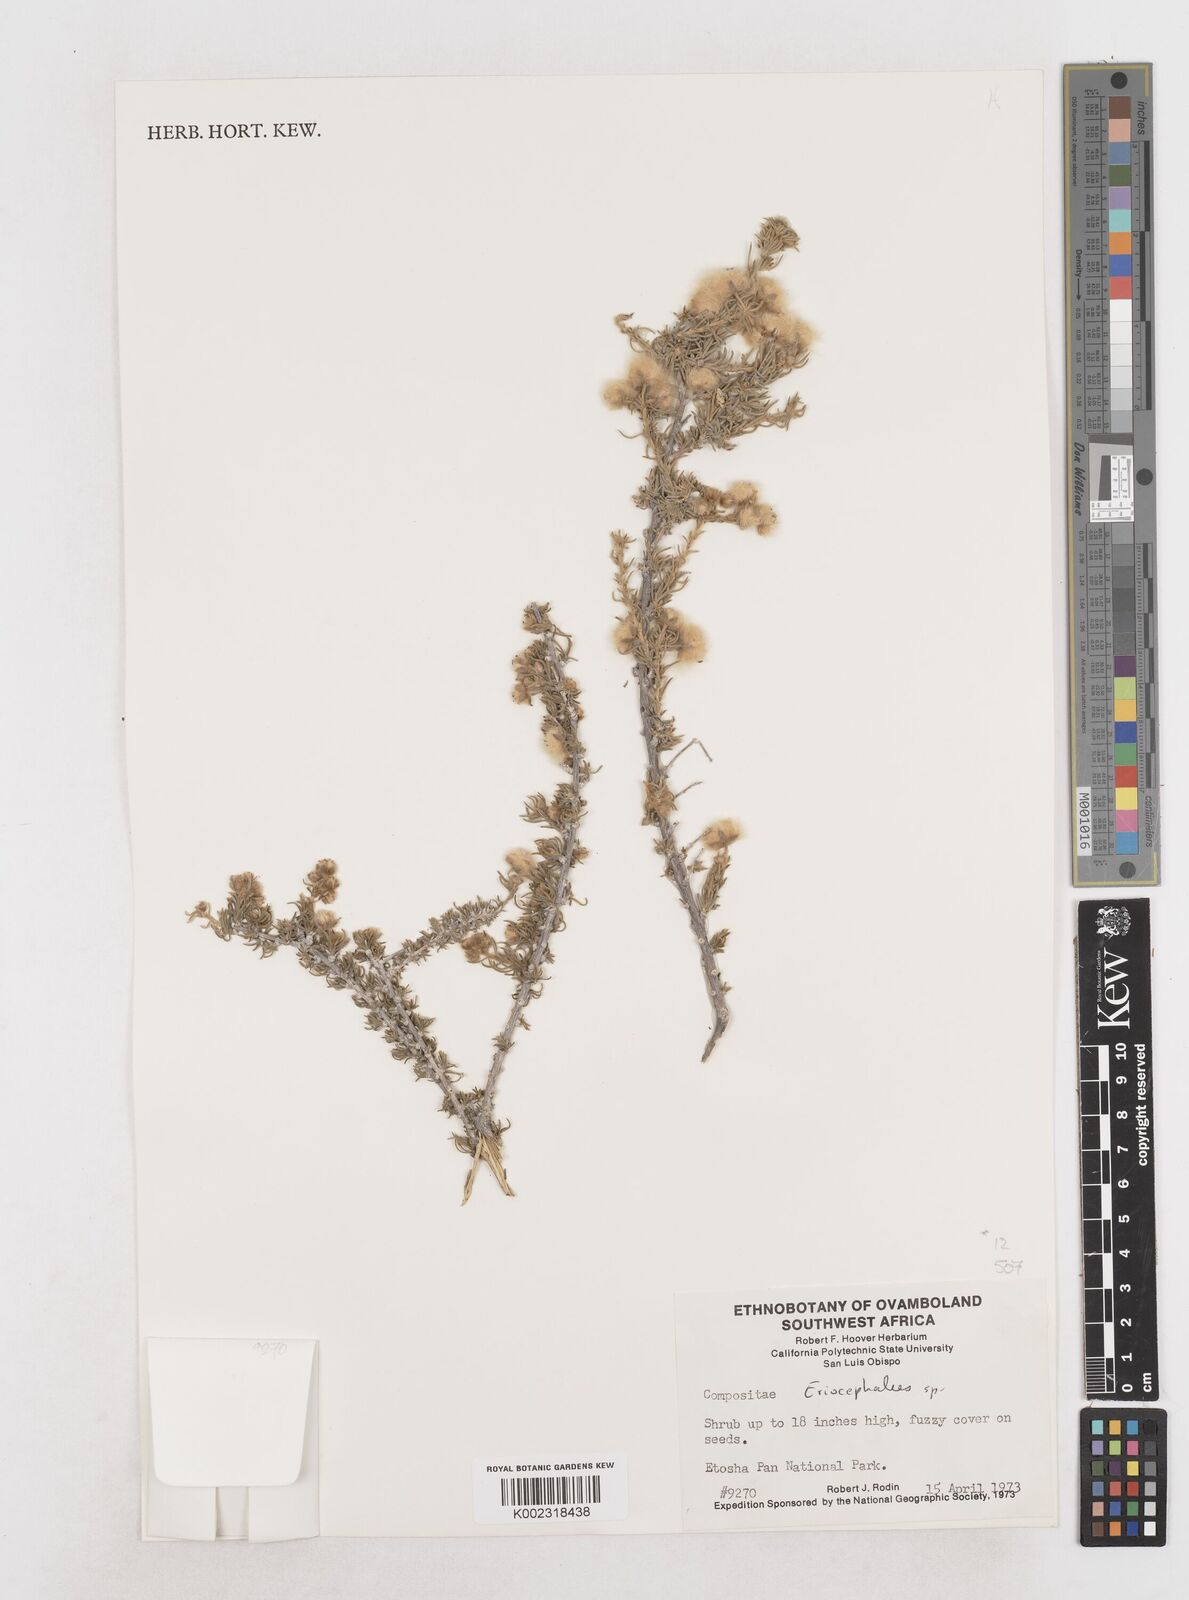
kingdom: Plantae
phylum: Tracheophyta
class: Magnoliopsida
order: Asterales
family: Asteraceae
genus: Eriocephalus
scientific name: Eriocephalus
